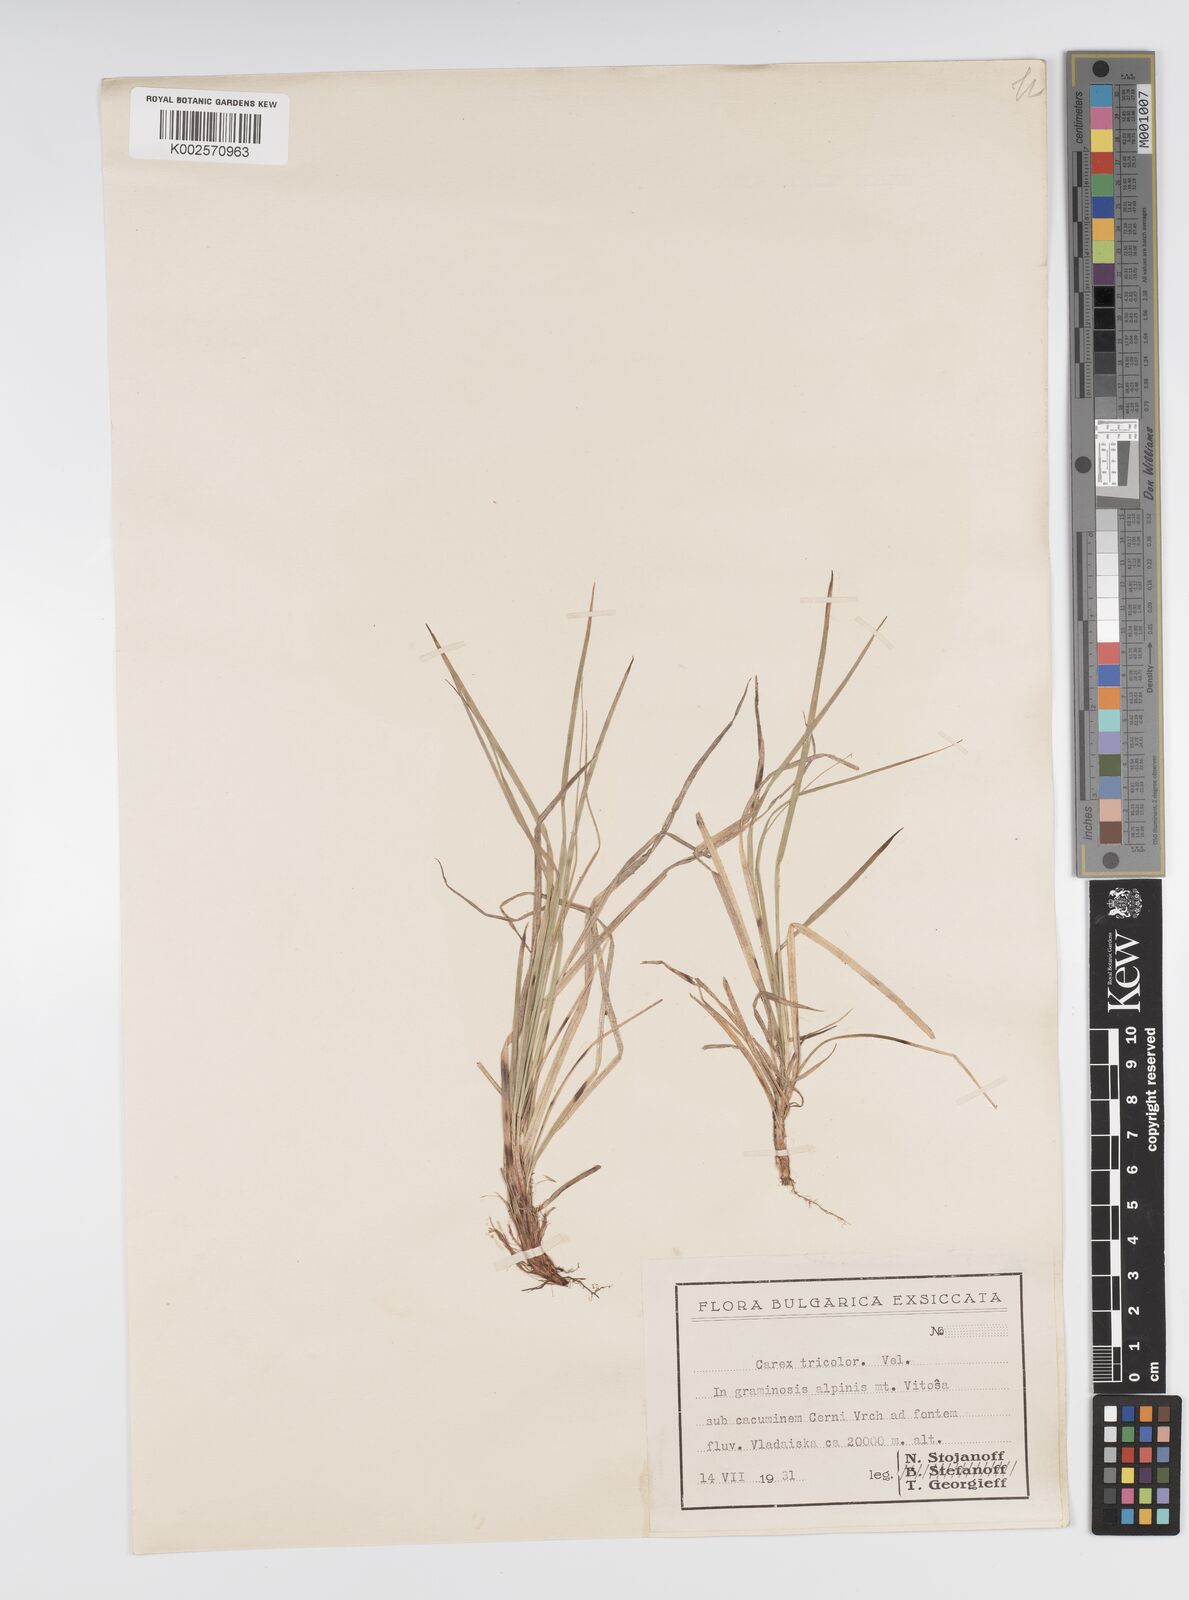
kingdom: Plantae
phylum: Tracheophyta
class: Liliopsida
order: Poales
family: Cyperaceae
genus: Carex
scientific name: Carex tricolor
